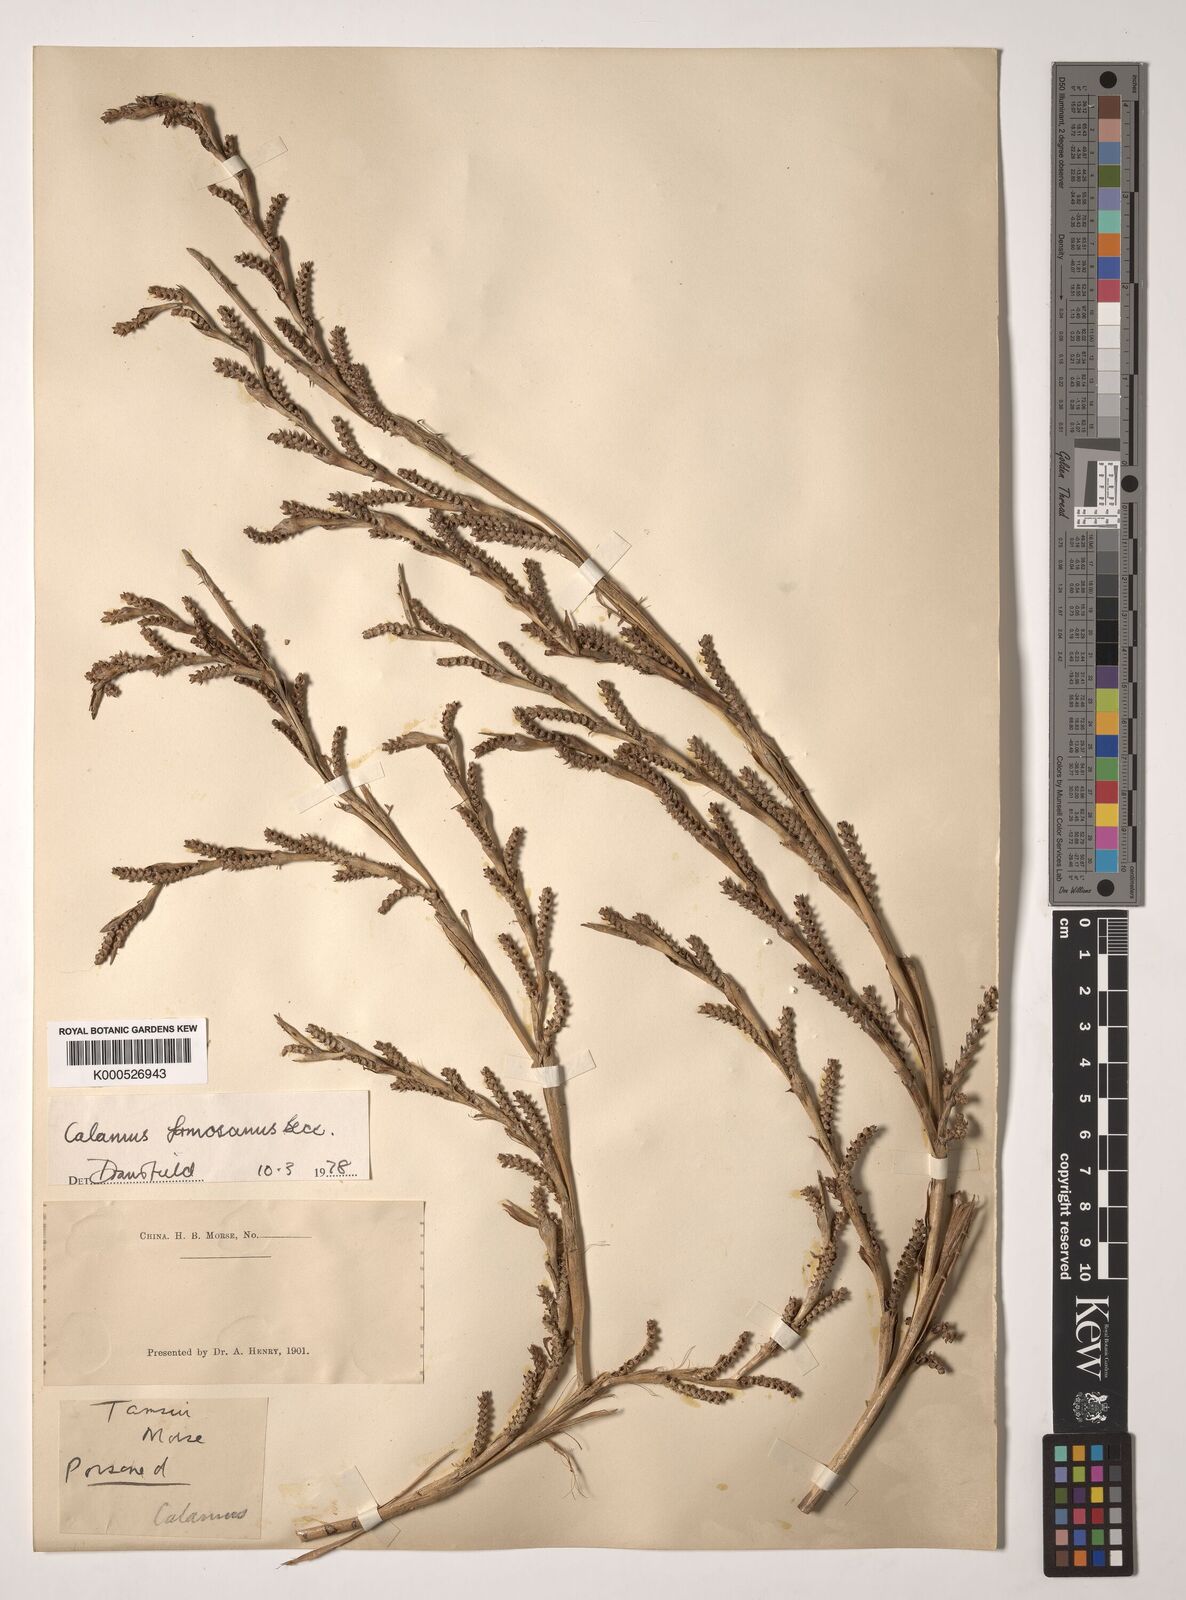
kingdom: Plantae
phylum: Tracheophyta
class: Liliopsida
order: Arecales
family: Arecaceae
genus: Calamus
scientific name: Calamus formosanus
